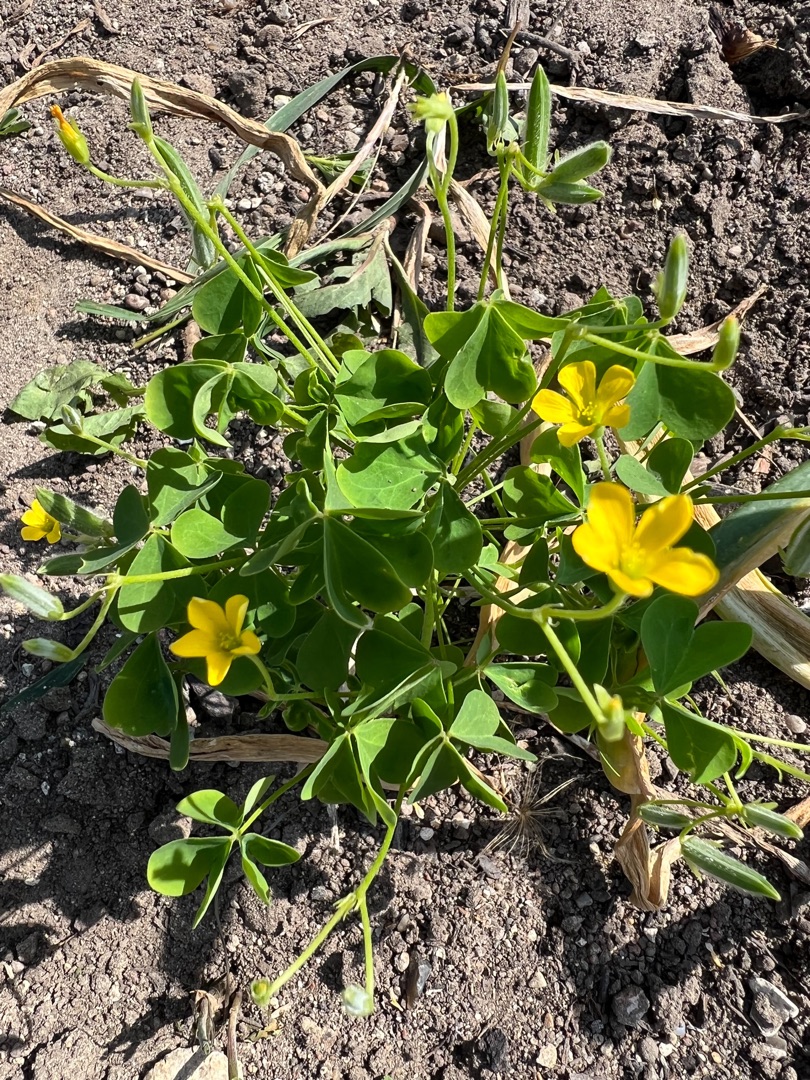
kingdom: Plantae
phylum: Tracheophyta
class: Magnoliopsida
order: Oxalidales
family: Oxalidaceae
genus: Oxalis
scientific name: Oxalis stricta
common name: Rank surkløver
